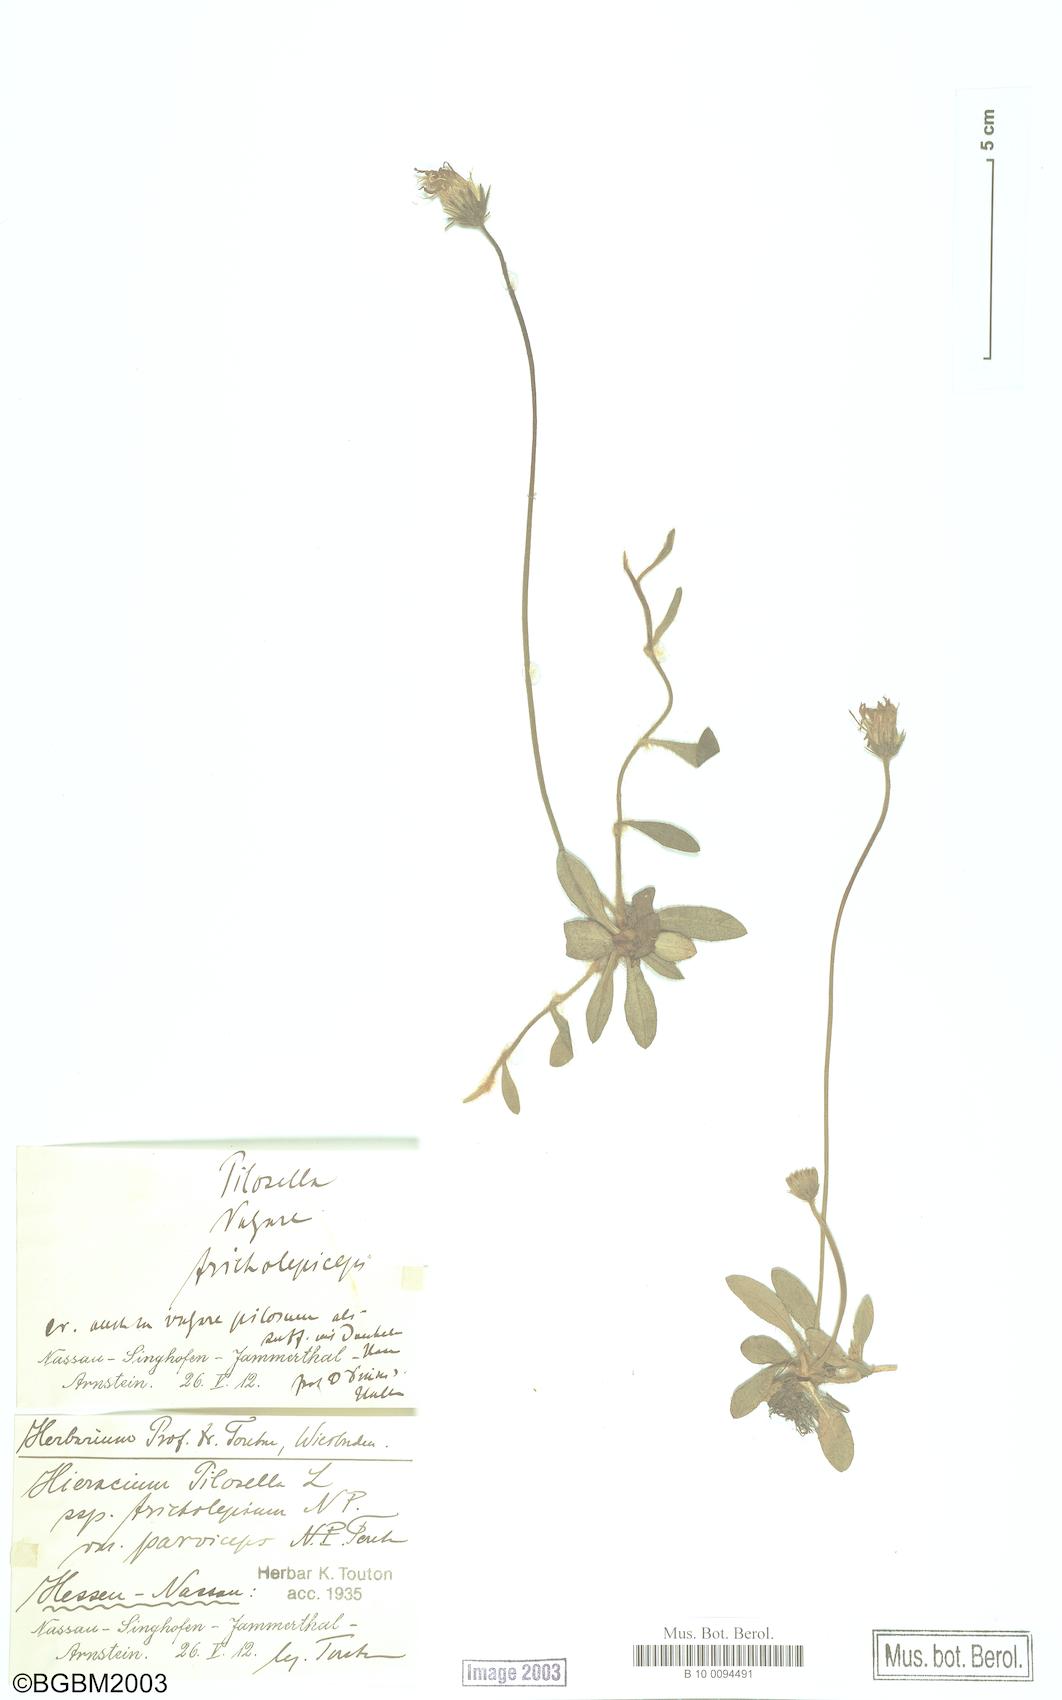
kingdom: Plantae
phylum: Tracheophyta
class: Magnoliopsida
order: Asterales
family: Asteraceae
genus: Pilosella
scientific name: Pilosella officinarum
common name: Mouse-ear hawkweed
